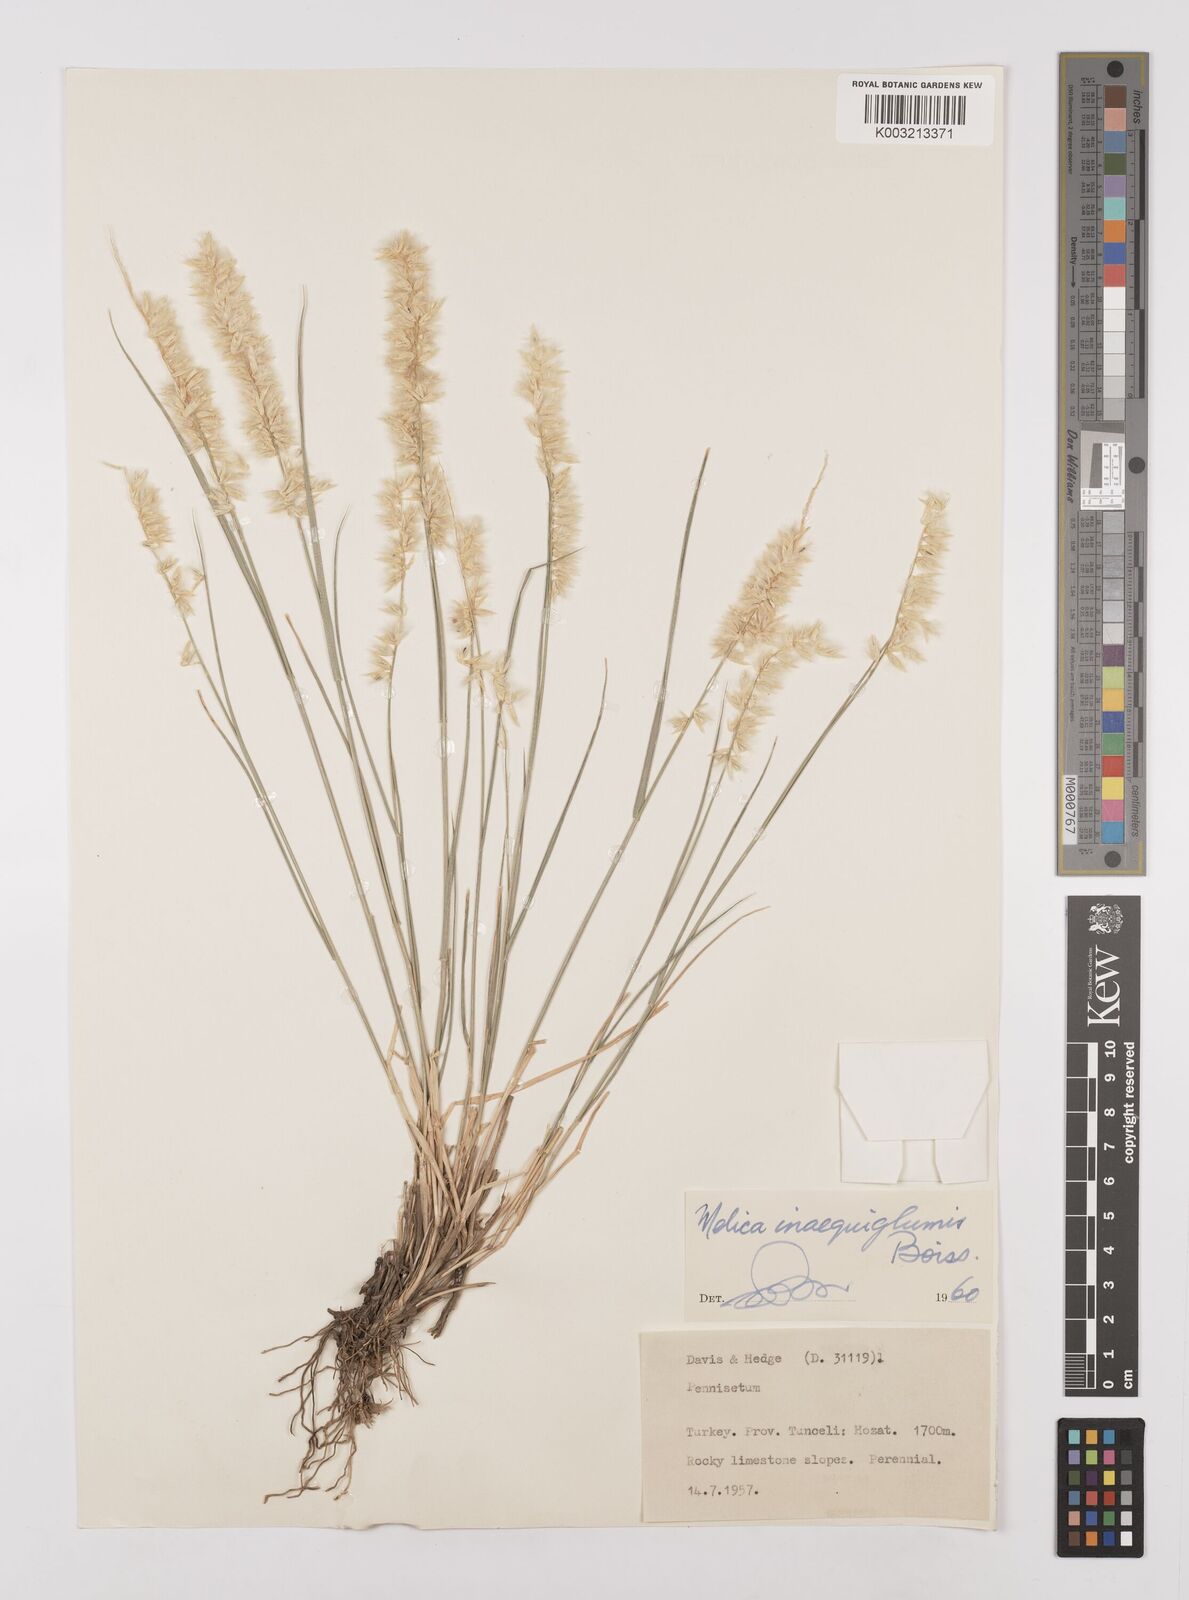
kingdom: Plantae
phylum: Tracheophyta
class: Liliopsida
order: Poales
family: Poaceae
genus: Melica
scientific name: Melica persica
